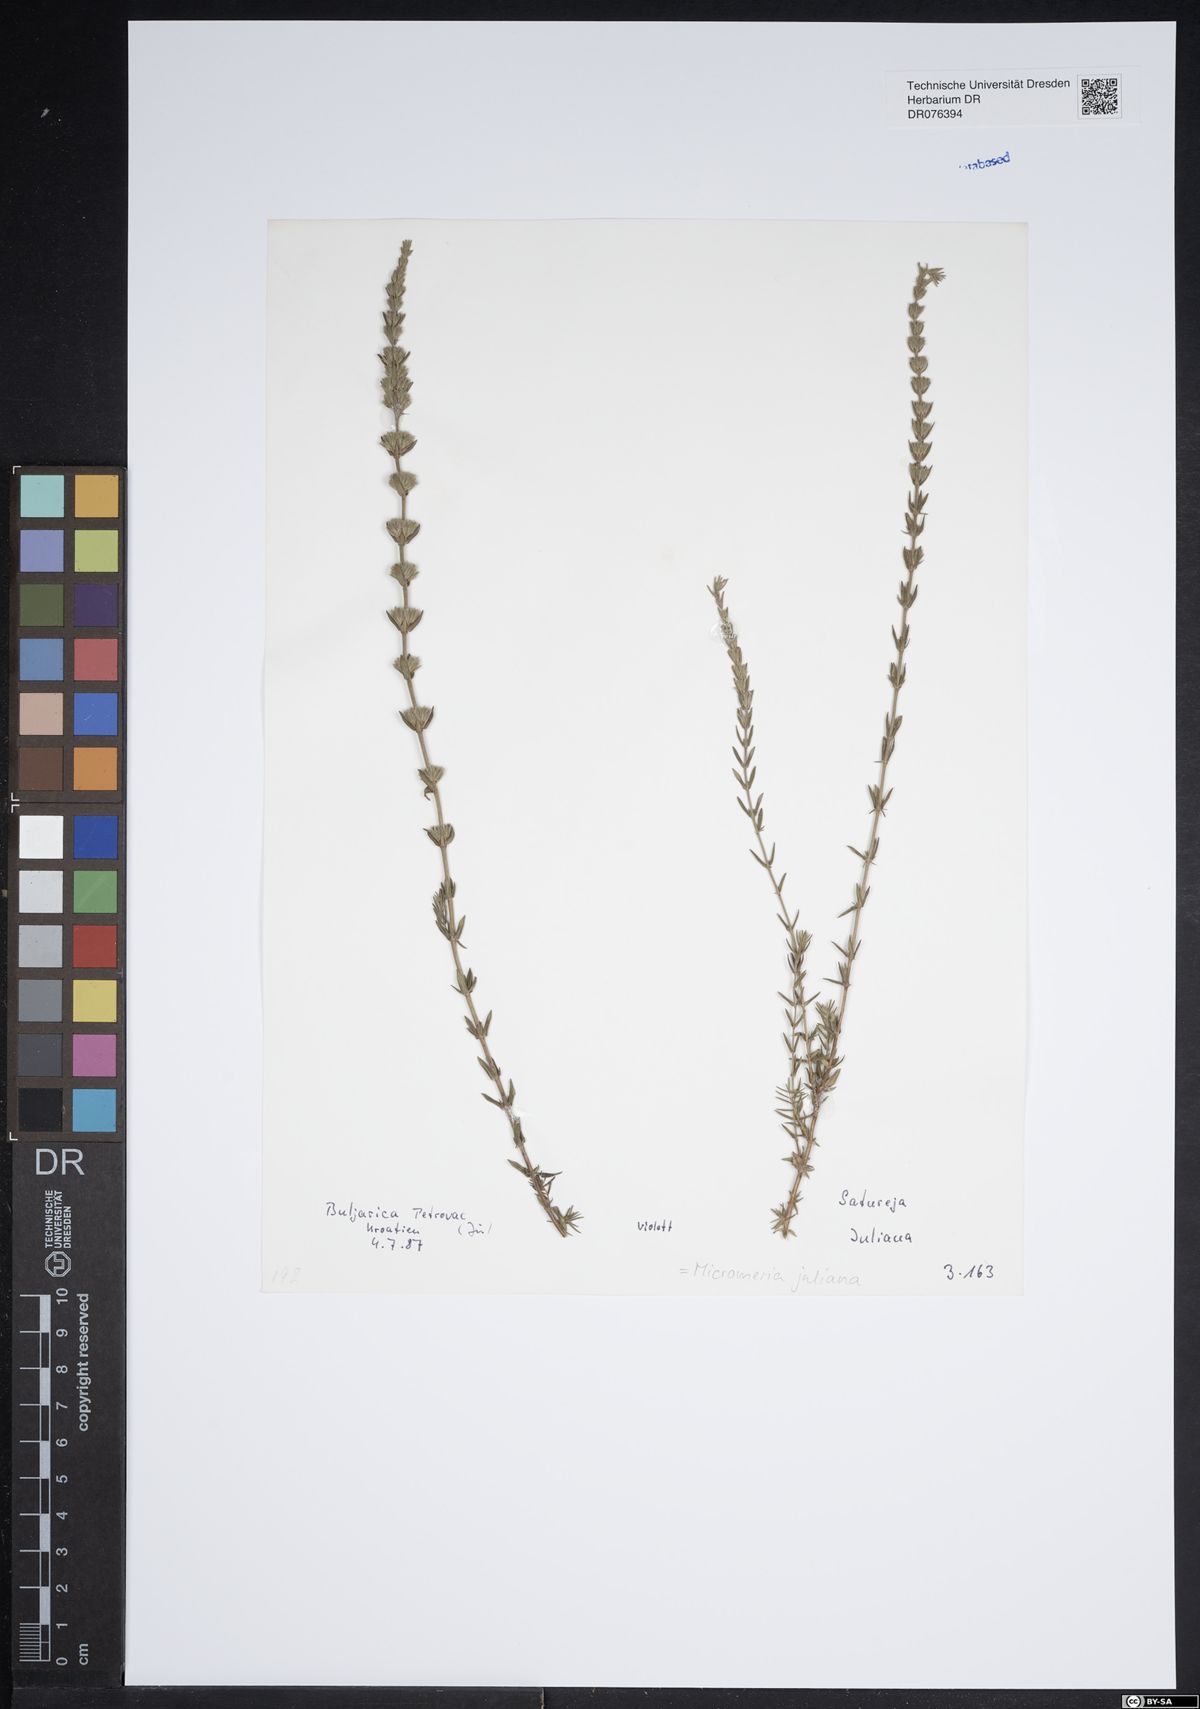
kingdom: Plantae
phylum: Tracheophyta
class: Magnoliopsida
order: Lamiales
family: Lamiaceae
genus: Micromeria
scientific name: Micromeria juliana
